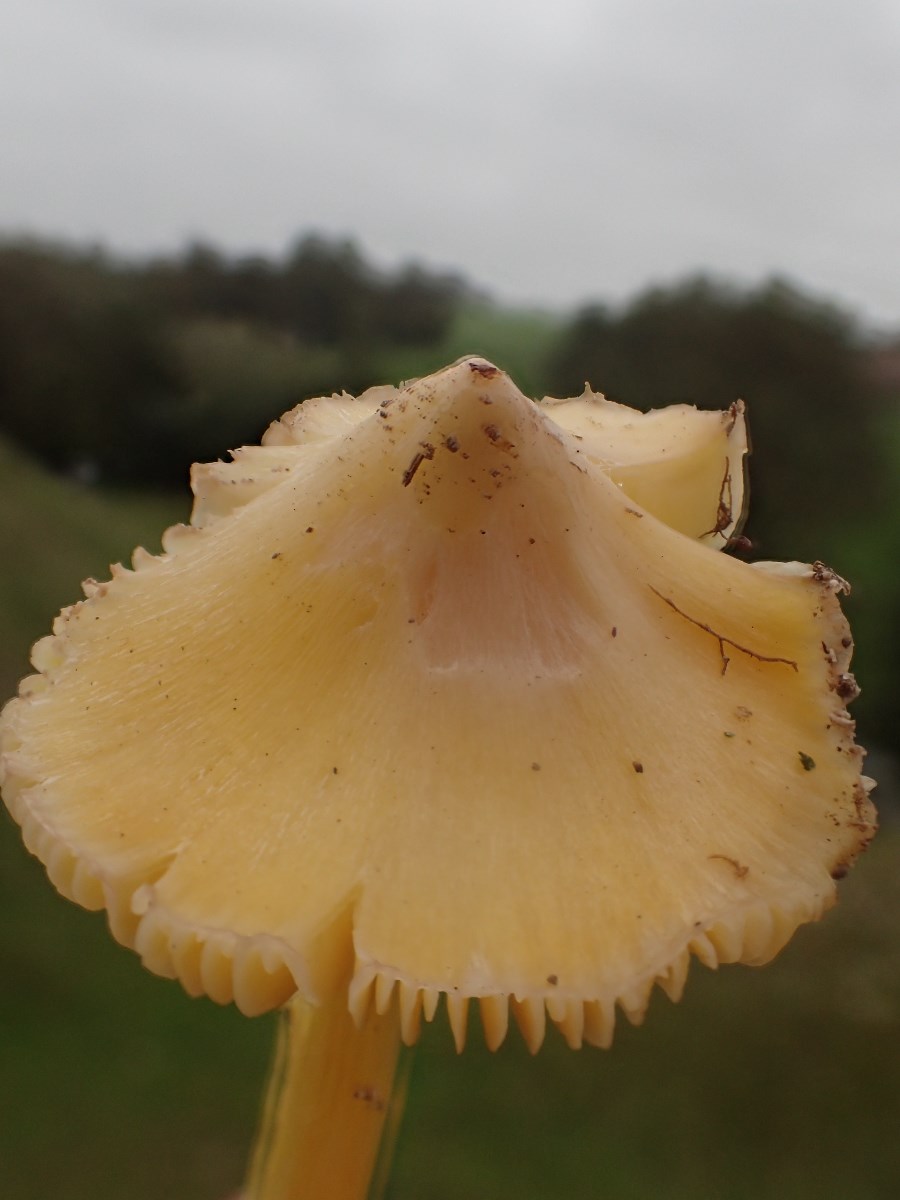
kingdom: Fungi
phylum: Basidiomycota
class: Agaricomycetes
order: Agaricales
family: Hygrophoraceae
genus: Hygrocybe
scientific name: Hygrocybe acutoconica
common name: Konrads vokshat
